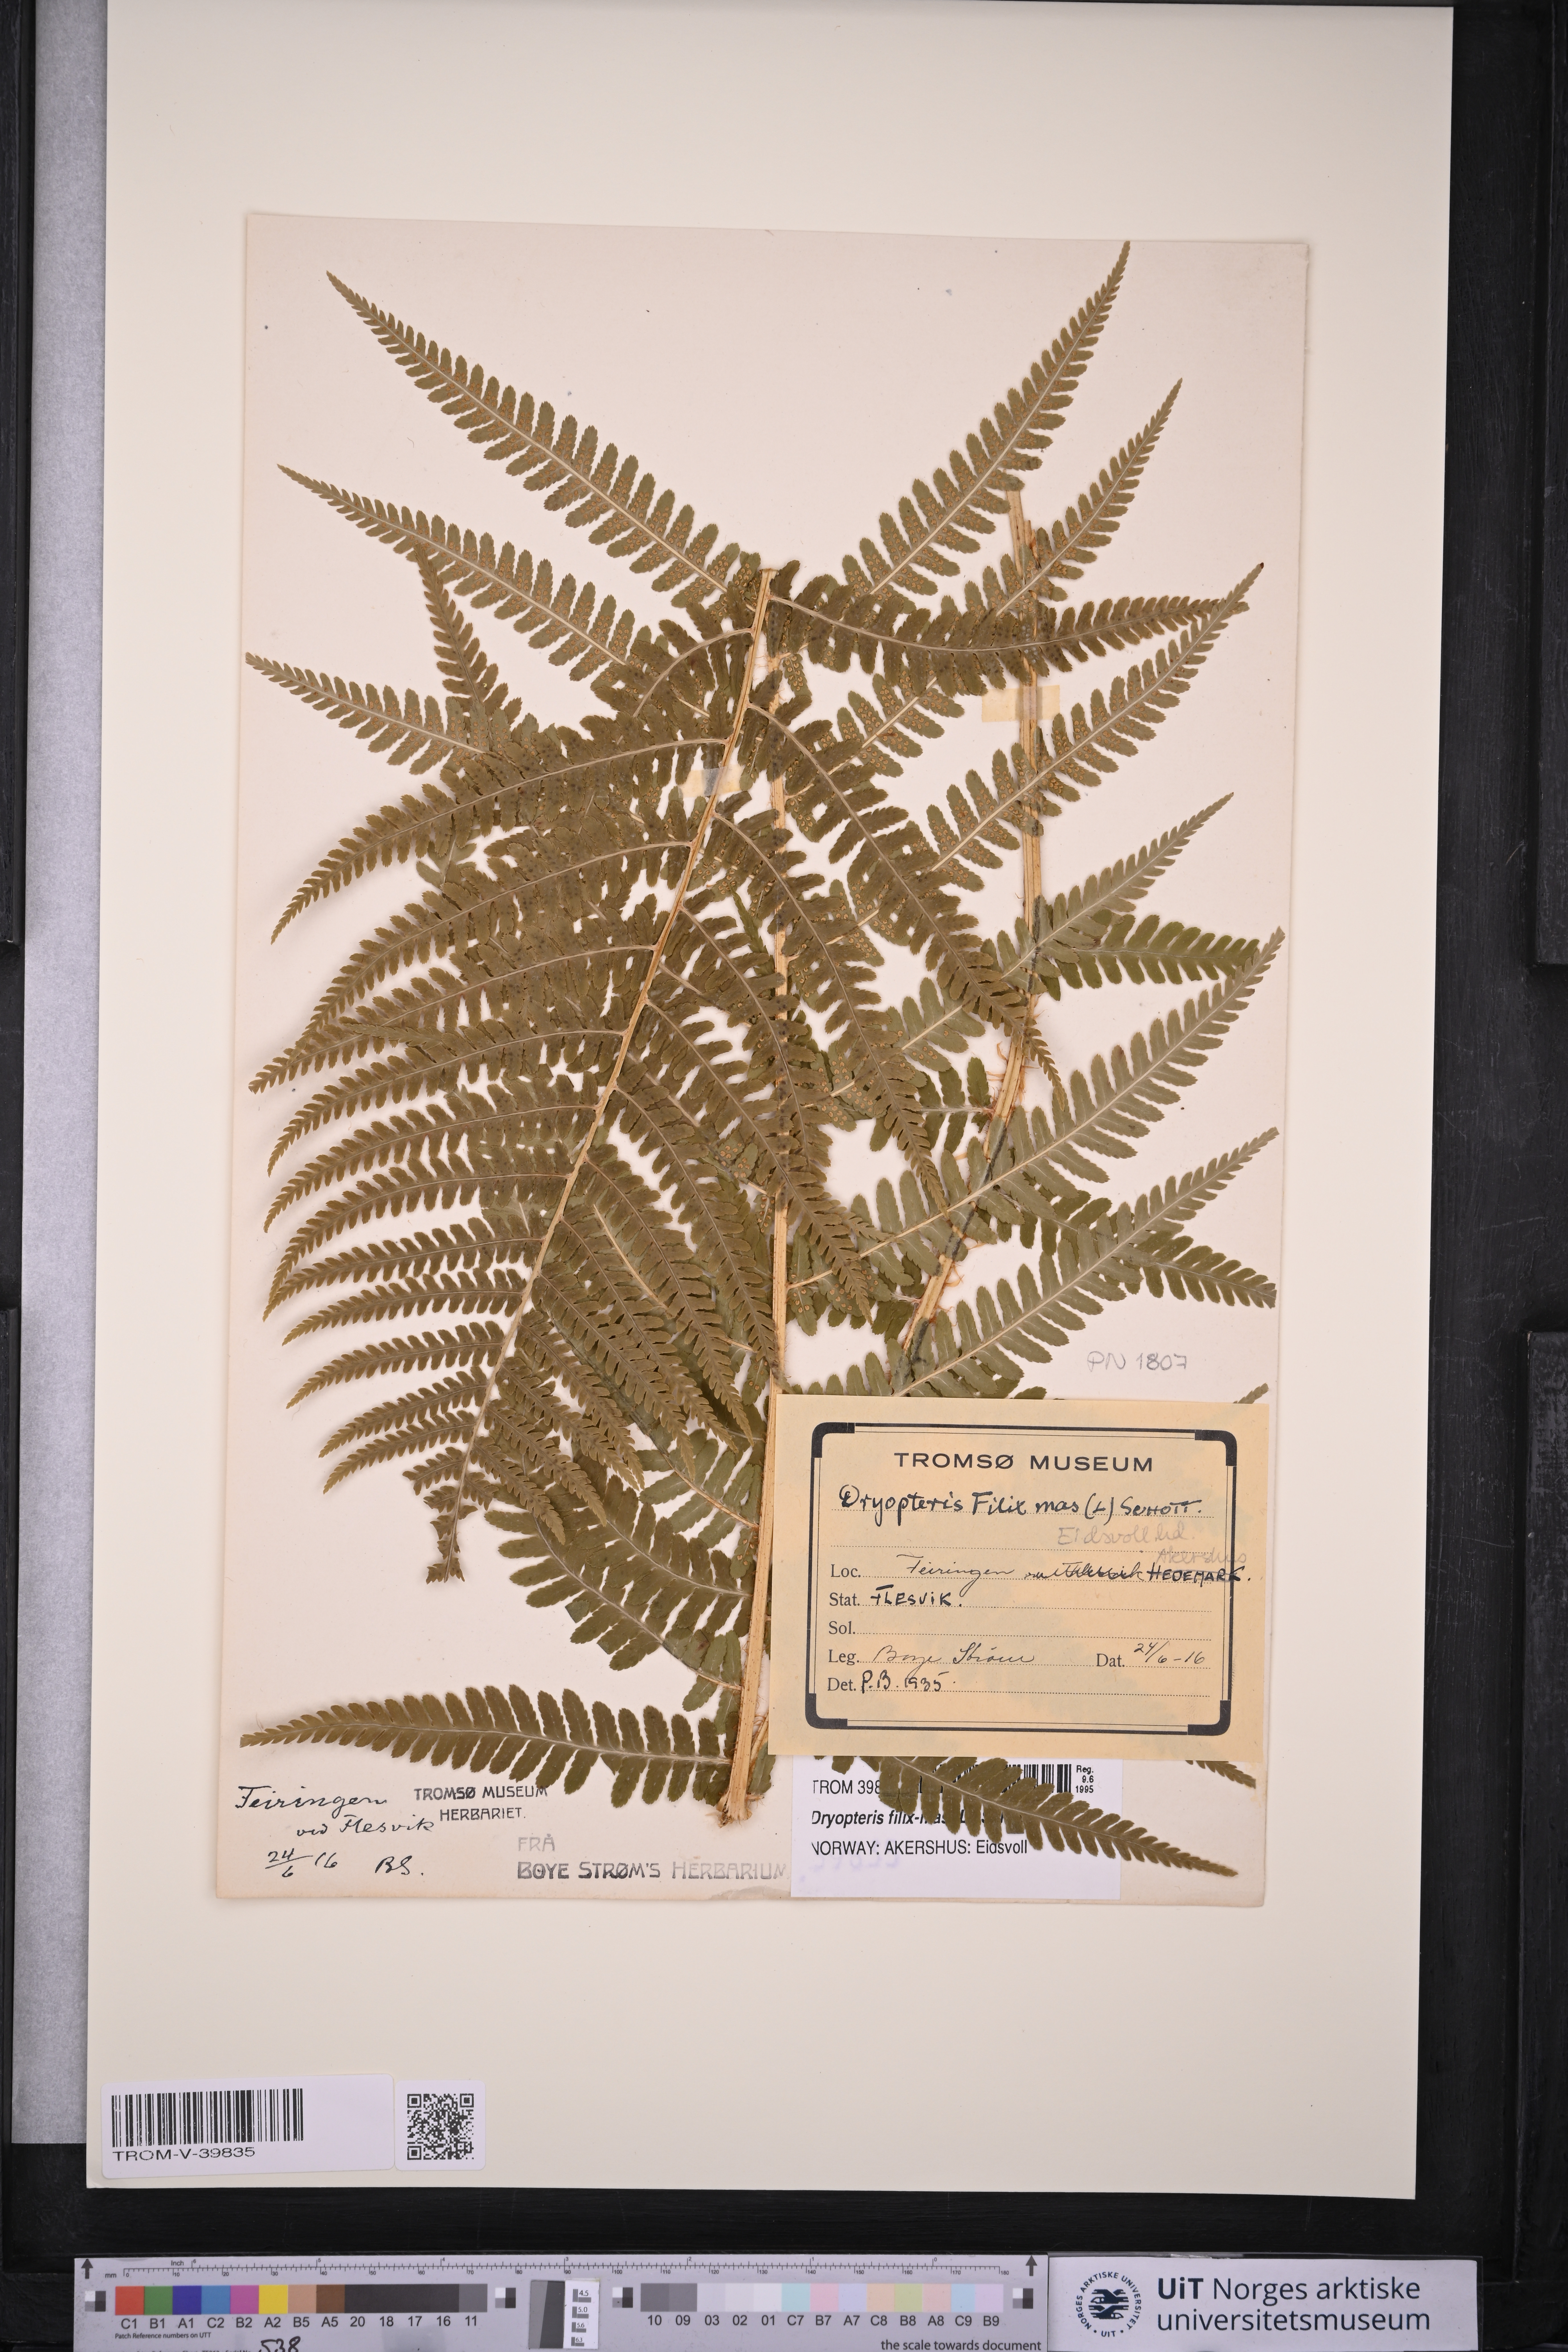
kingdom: Plantae
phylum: Tracheophyta
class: Polypodiopsida
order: Polypodiales
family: Dryopteridaceae
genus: Dryopteris
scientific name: Dryopteris filix-mas
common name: Male fern
